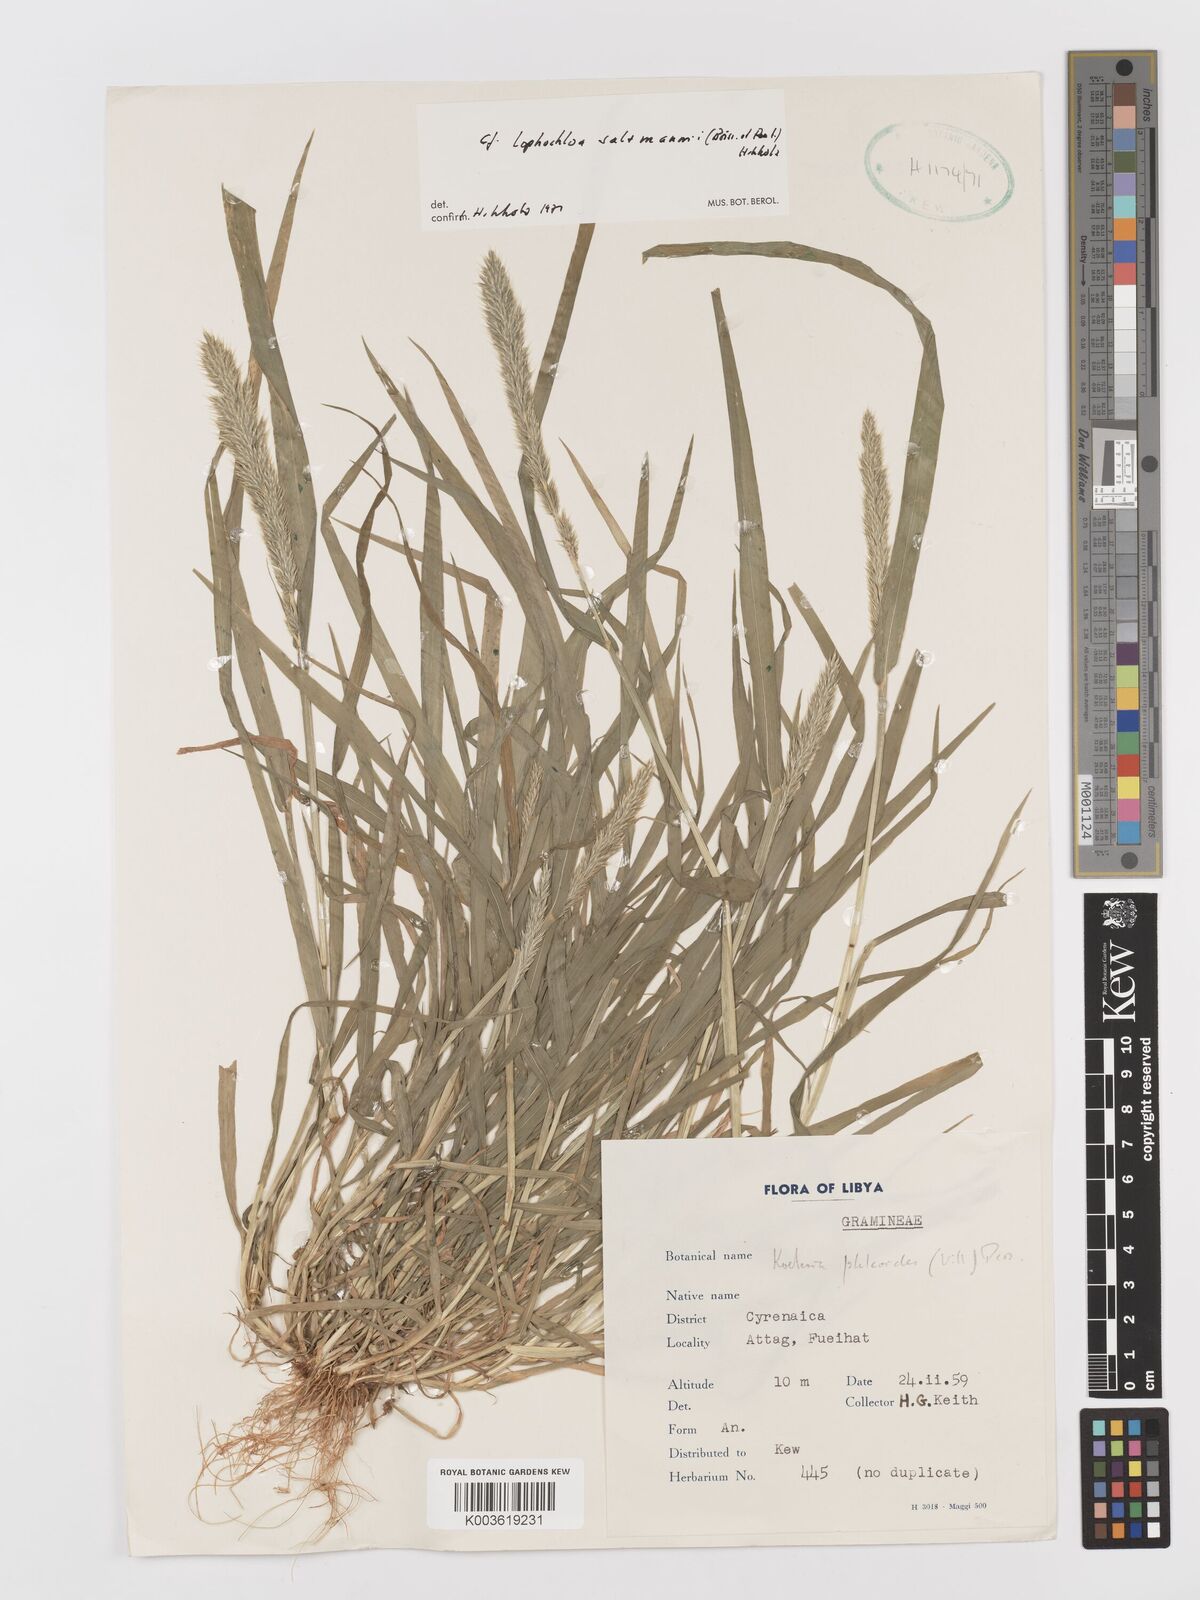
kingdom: Plantae
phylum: Tracheophyta
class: Liliopsida
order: Poales
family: Poaceae
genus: Rostraria
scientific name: Rostraria salzmannii
